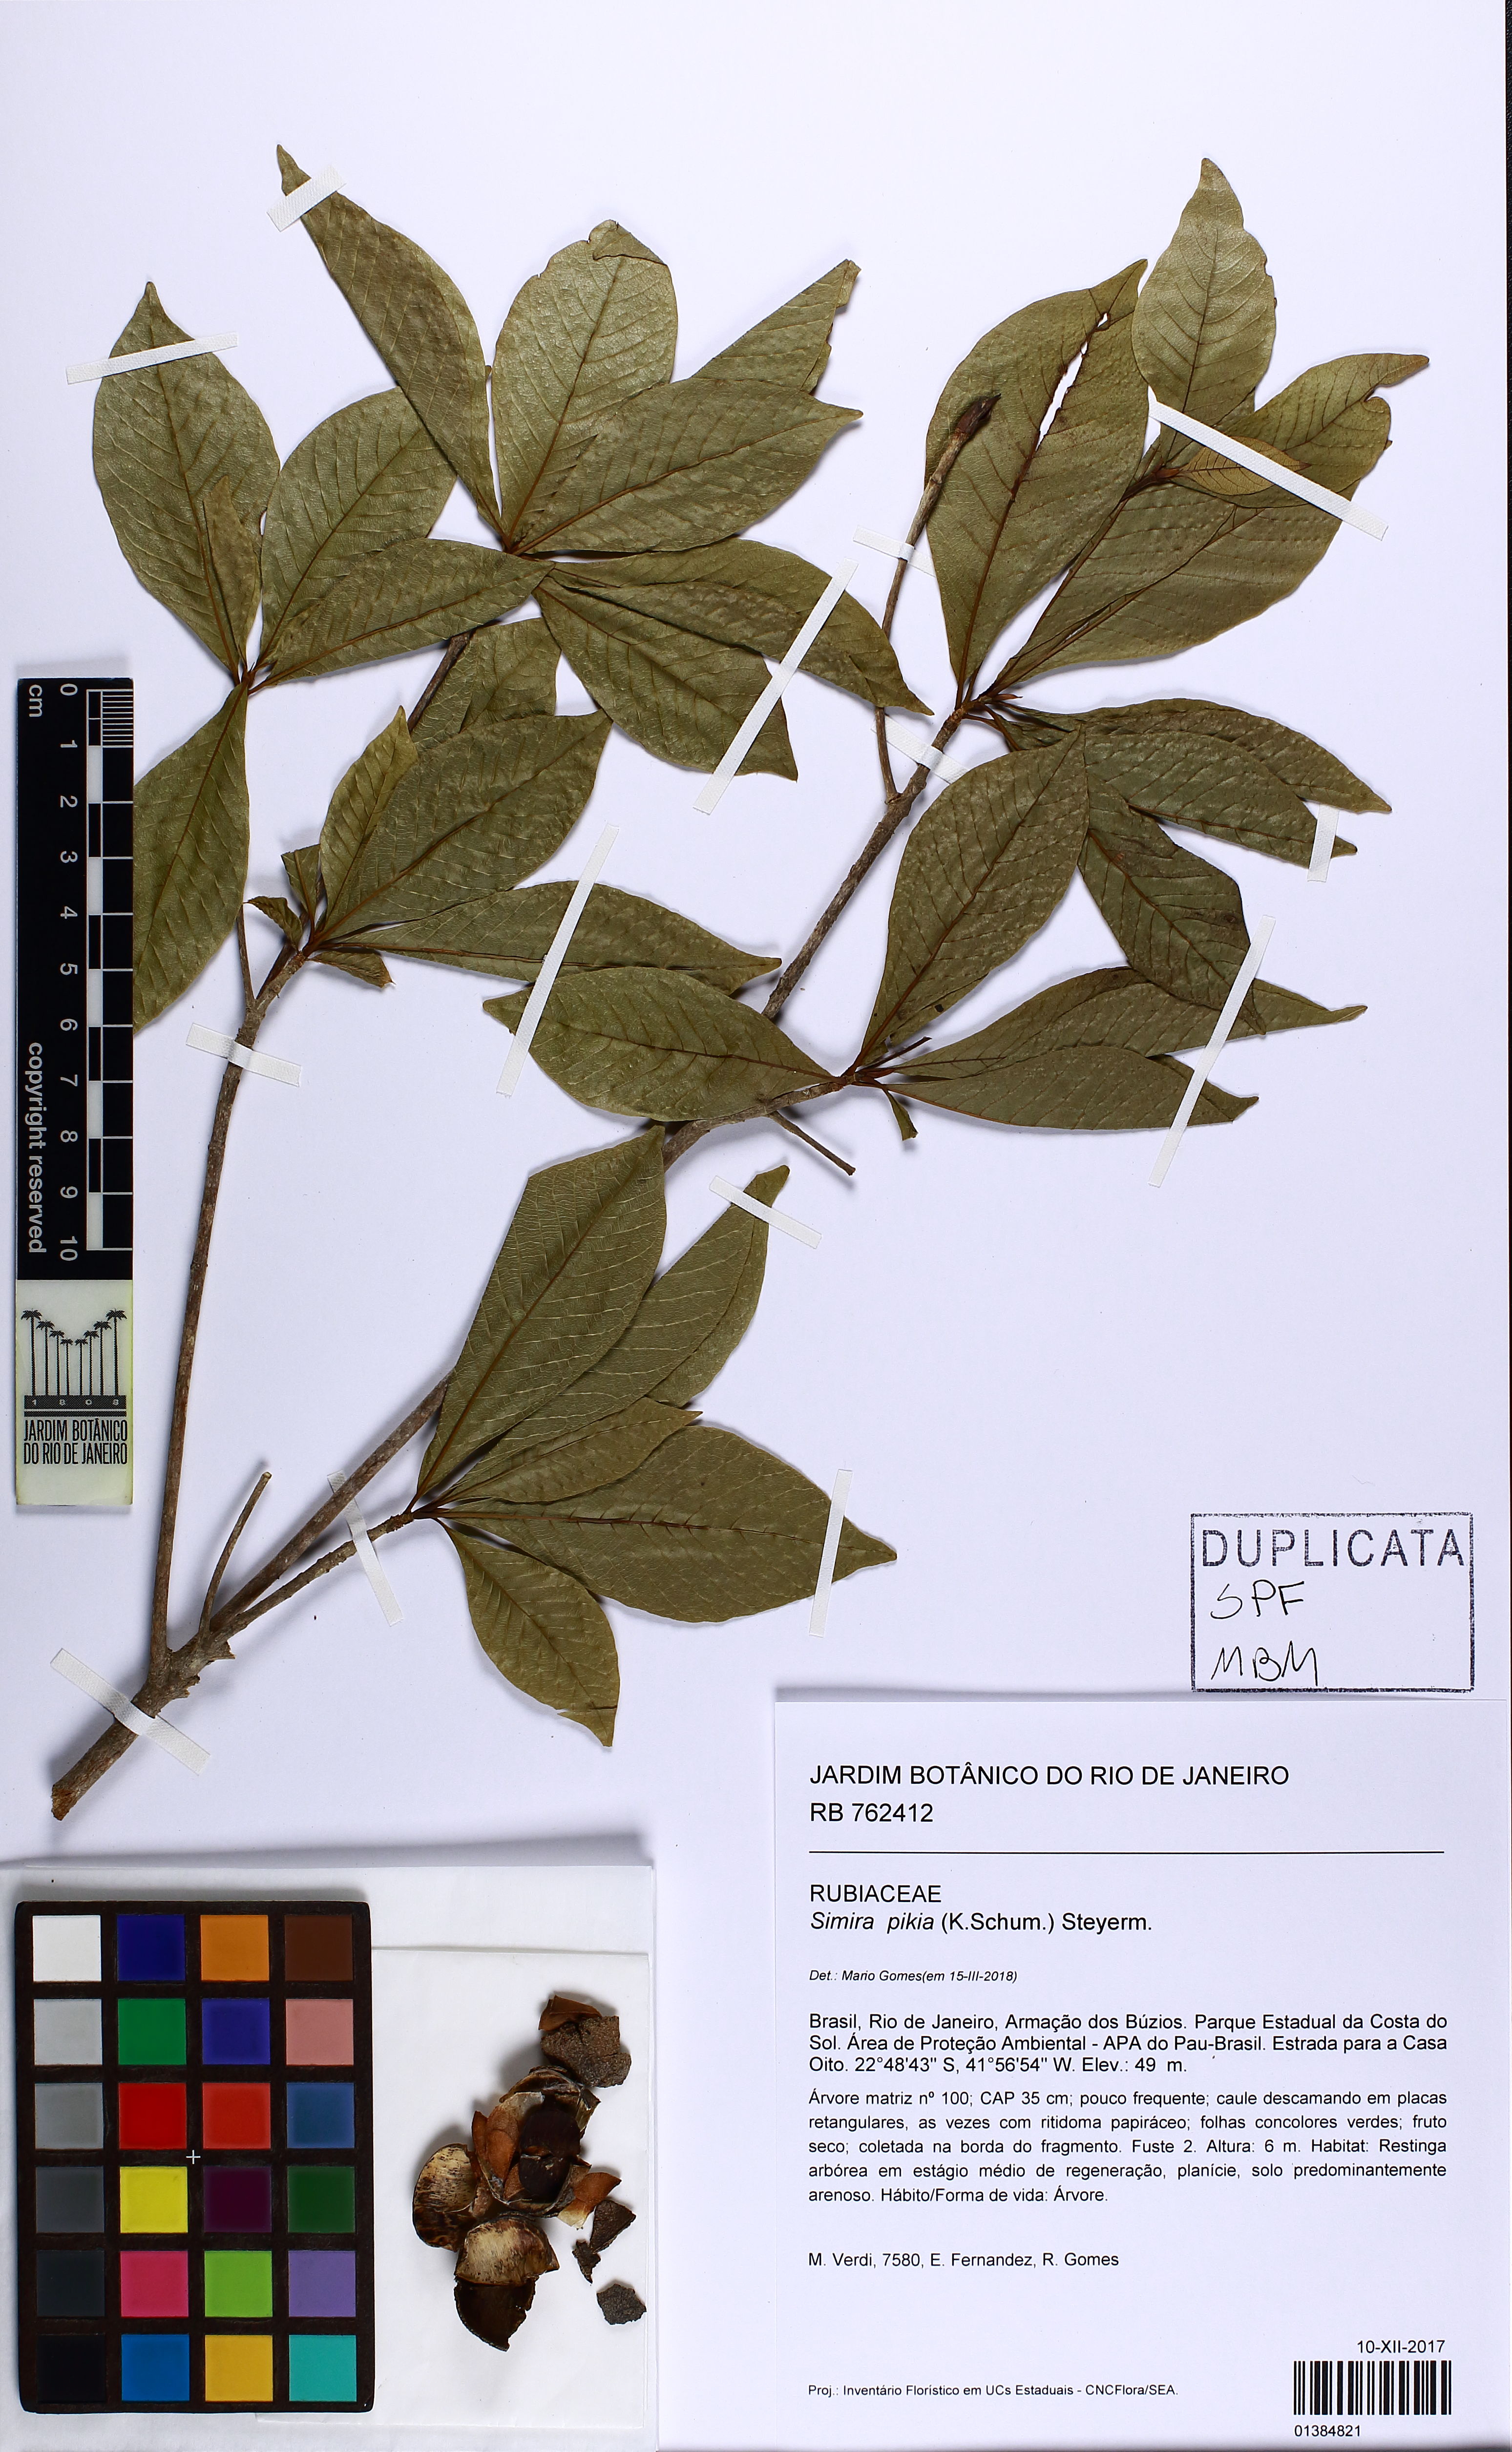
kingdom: Plantae
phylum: Tracheophyta
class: Magnoliopsida
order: Gentianales
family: Rubiaceae
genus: Simira
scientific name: Simira pikia
